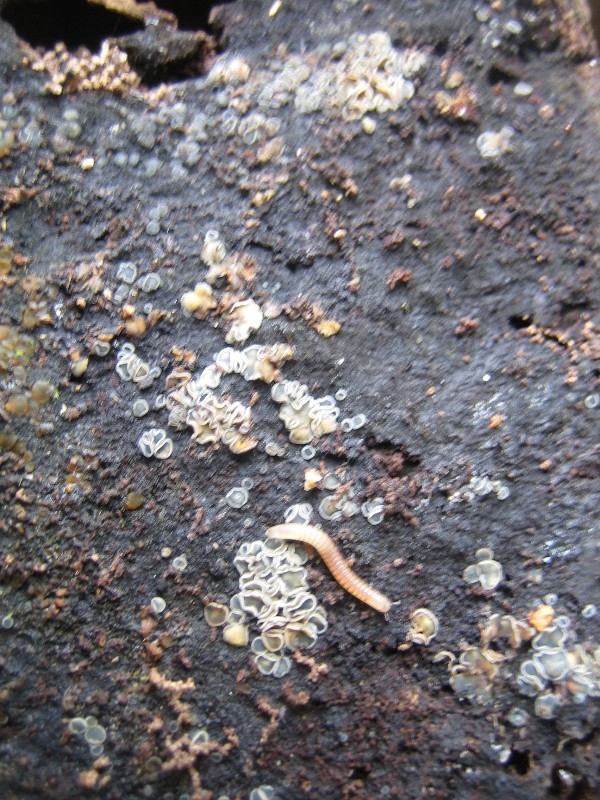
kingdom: Fungi
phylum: Ascomycota
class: Leotiomycetes
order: Helotiales
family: Mollisiaceae
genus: Mollisia
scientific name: Mollisia cinerea
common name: almindelig gråskive
